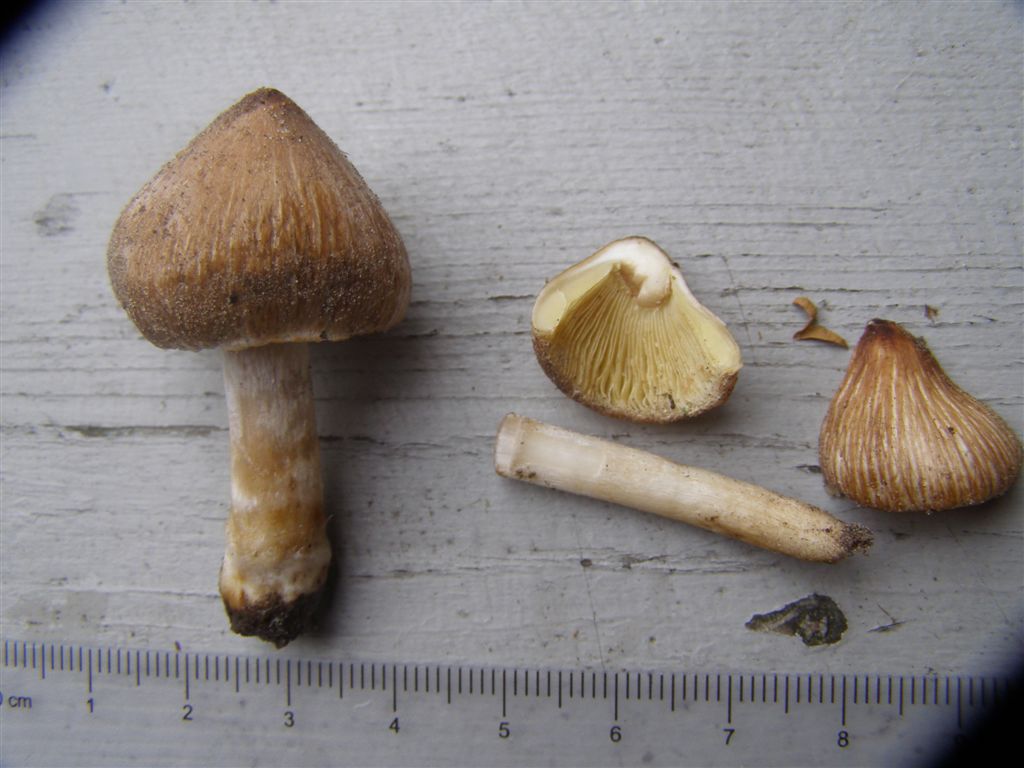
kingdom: Fungi
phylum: Basidiomycota
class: Agaricomycetes
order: Agaricales
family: Inocybaceae
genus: Pseudosperma
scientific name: Pseudosperma rimosum
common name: gulbladet trævlhat
